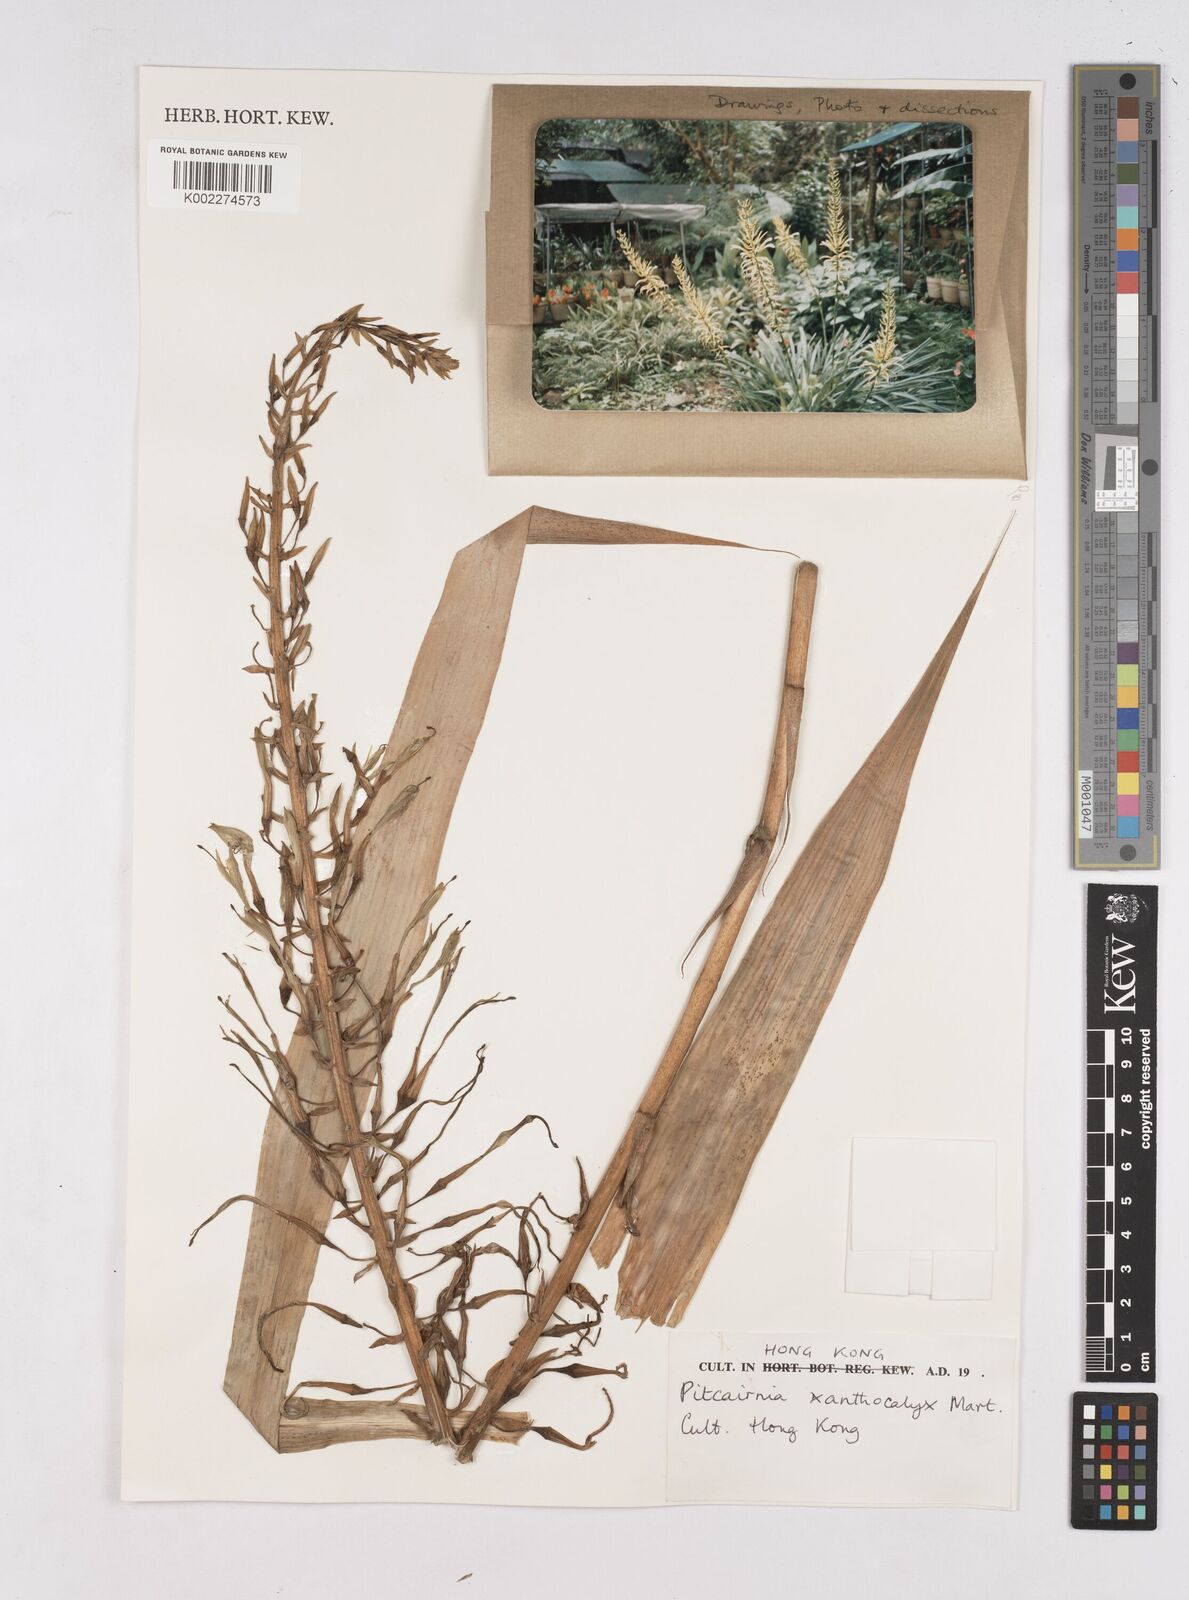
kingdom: Plantae
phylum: Tracheophyta
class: Liliopsida
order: Poales
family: Bromeliaceae
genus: Pitcairnia
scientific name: Pitcairnia xanthocalyx
